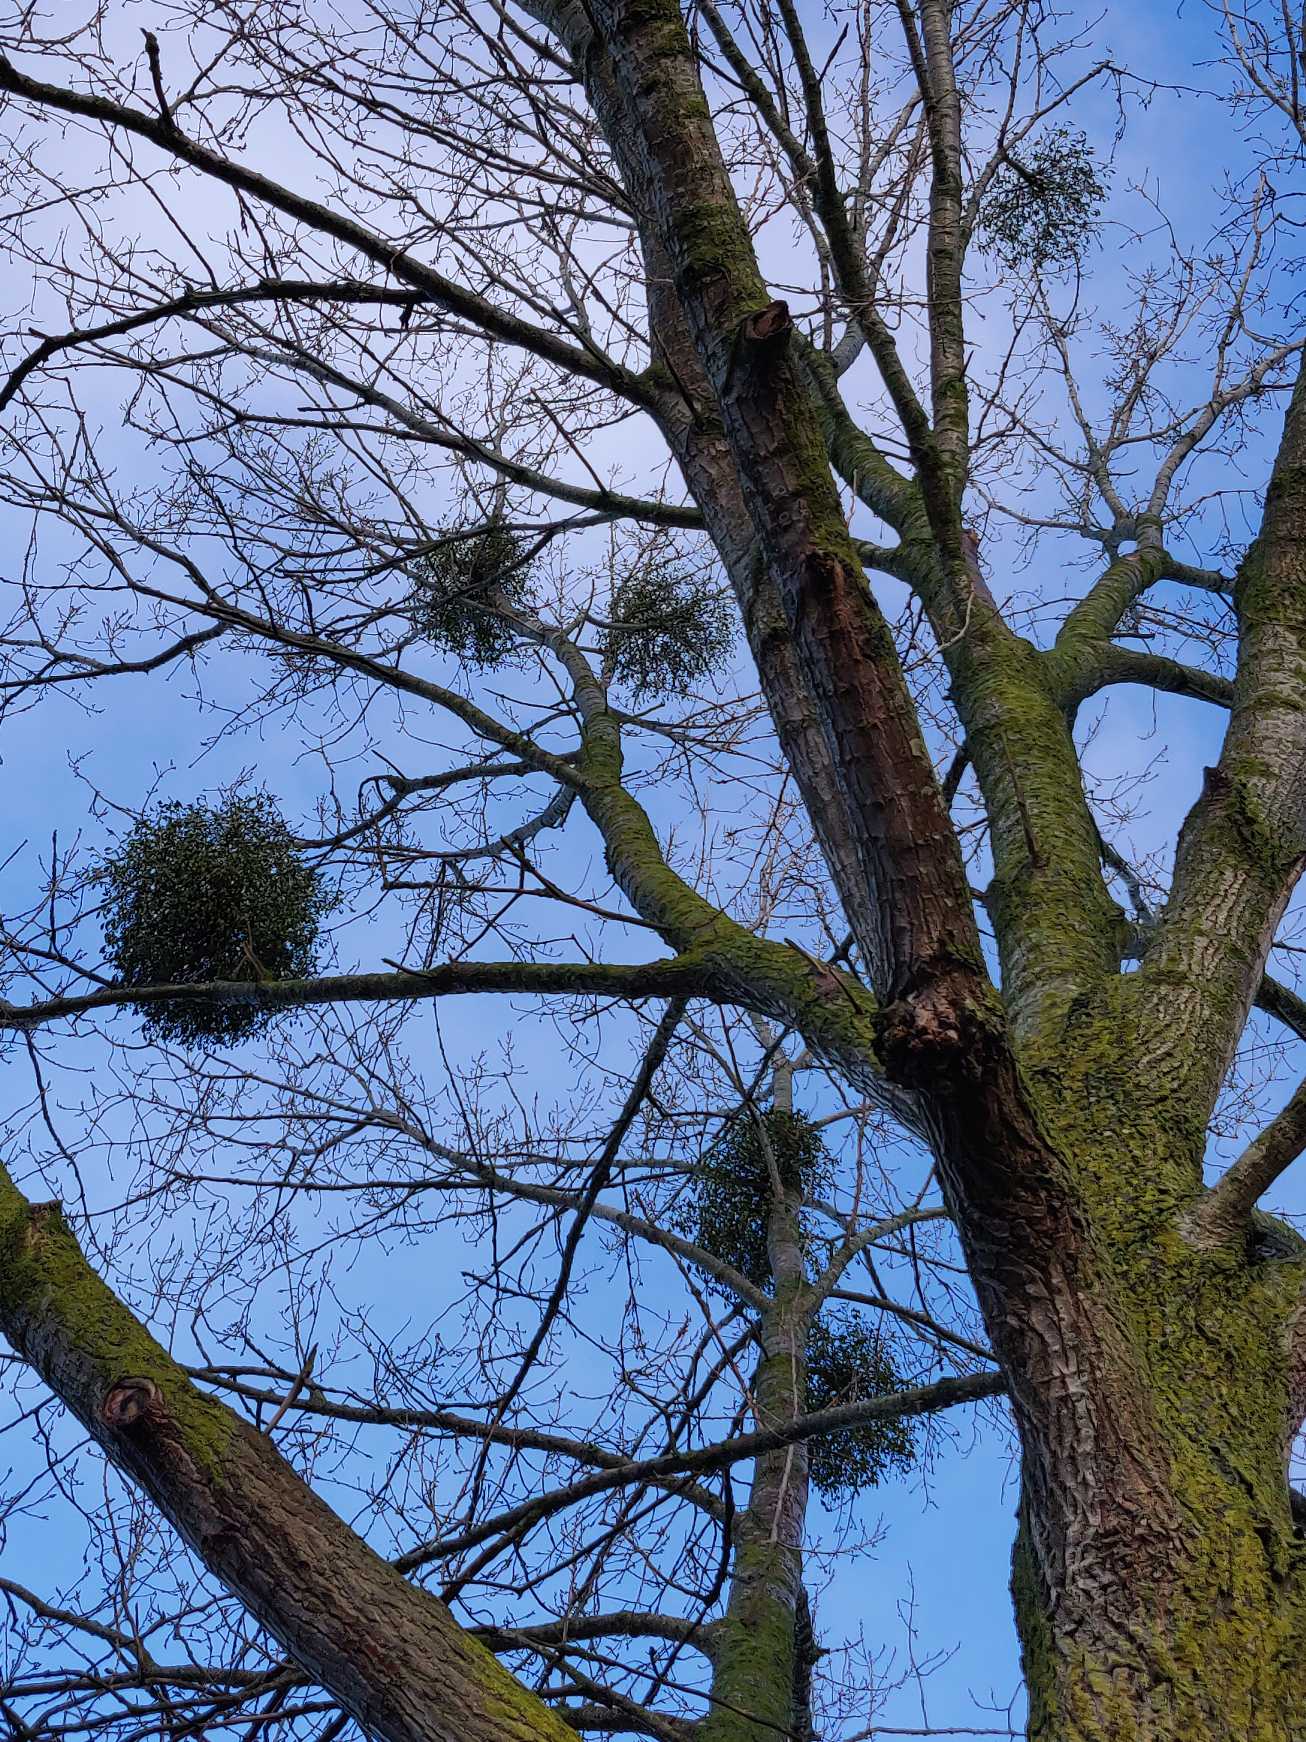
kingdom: Plantae
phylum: Tracheophyta
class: Magnoliopsida
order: Santalales
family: Viscaceae
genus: Viscum
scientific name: Viscum album
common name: Mistelten
